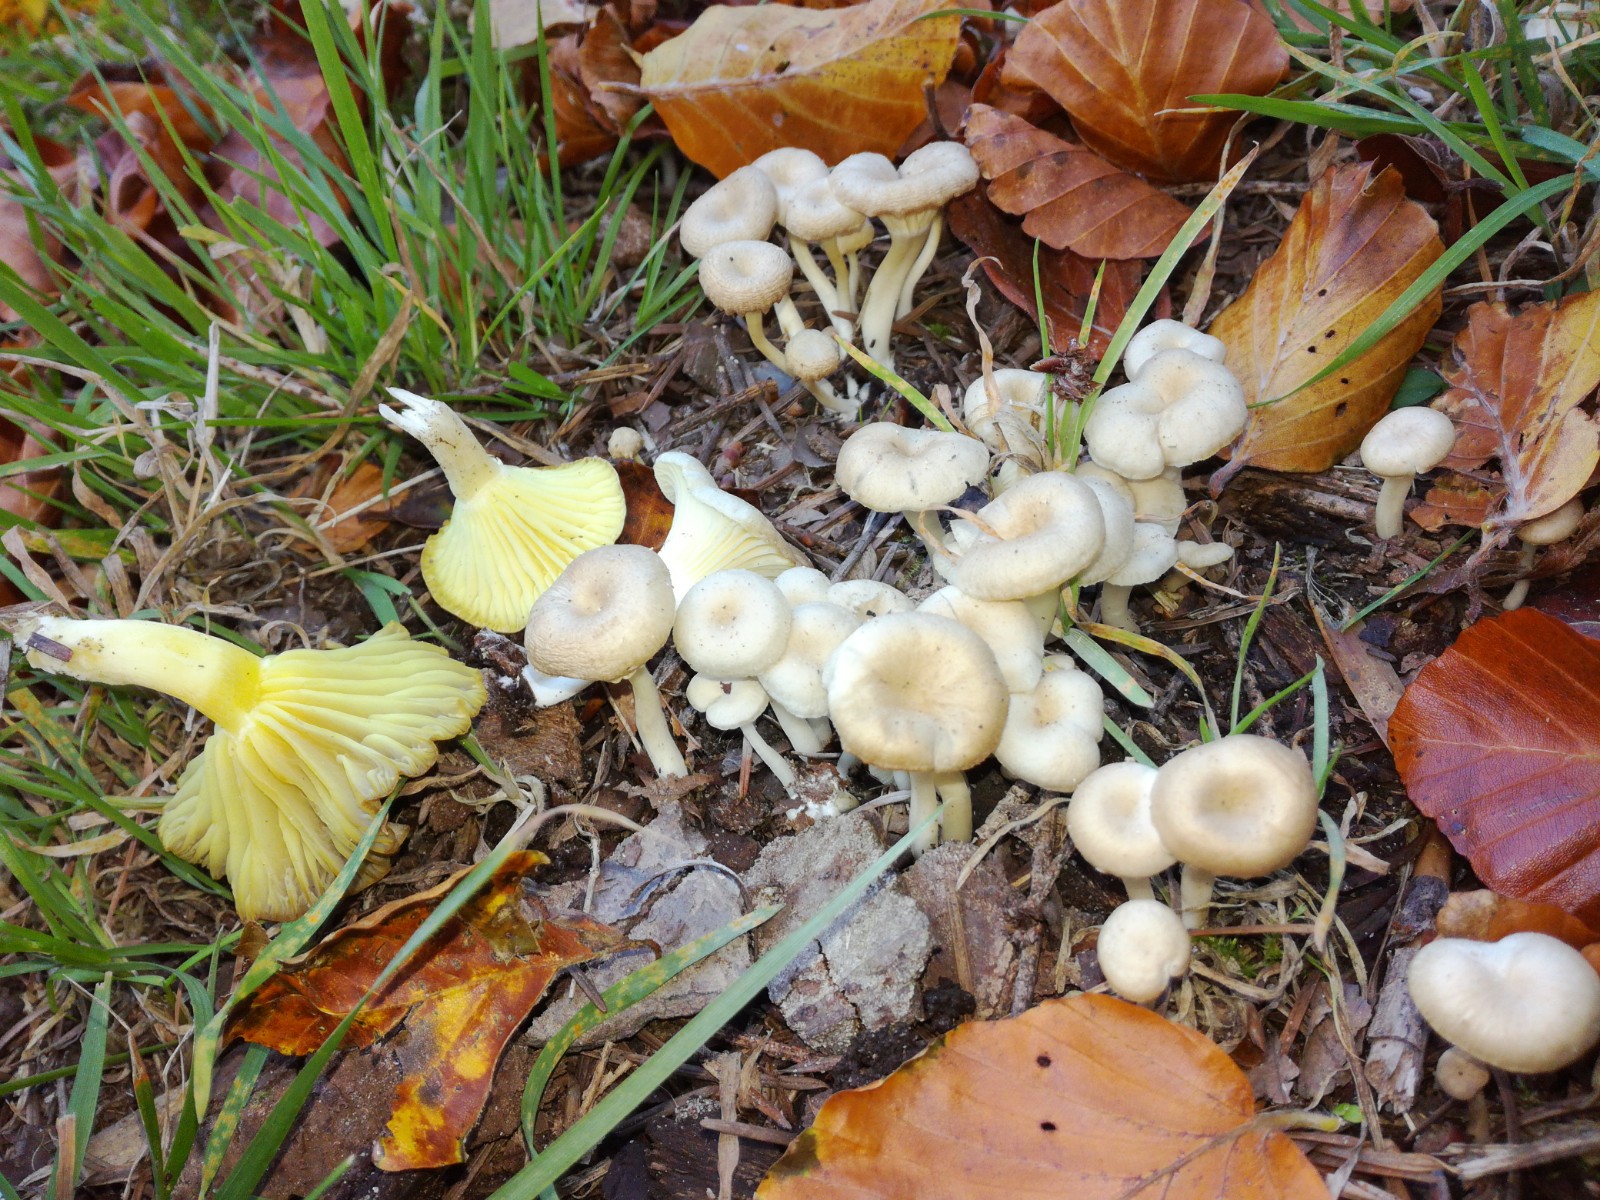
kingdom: Fungi
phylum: Basidiomycota
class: Agaricomycetes
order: Agaricales
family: Hygrophoraceae
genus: Chrysomphalina
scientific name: Chrysomphalina grossula
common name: stød-gyldenblad
